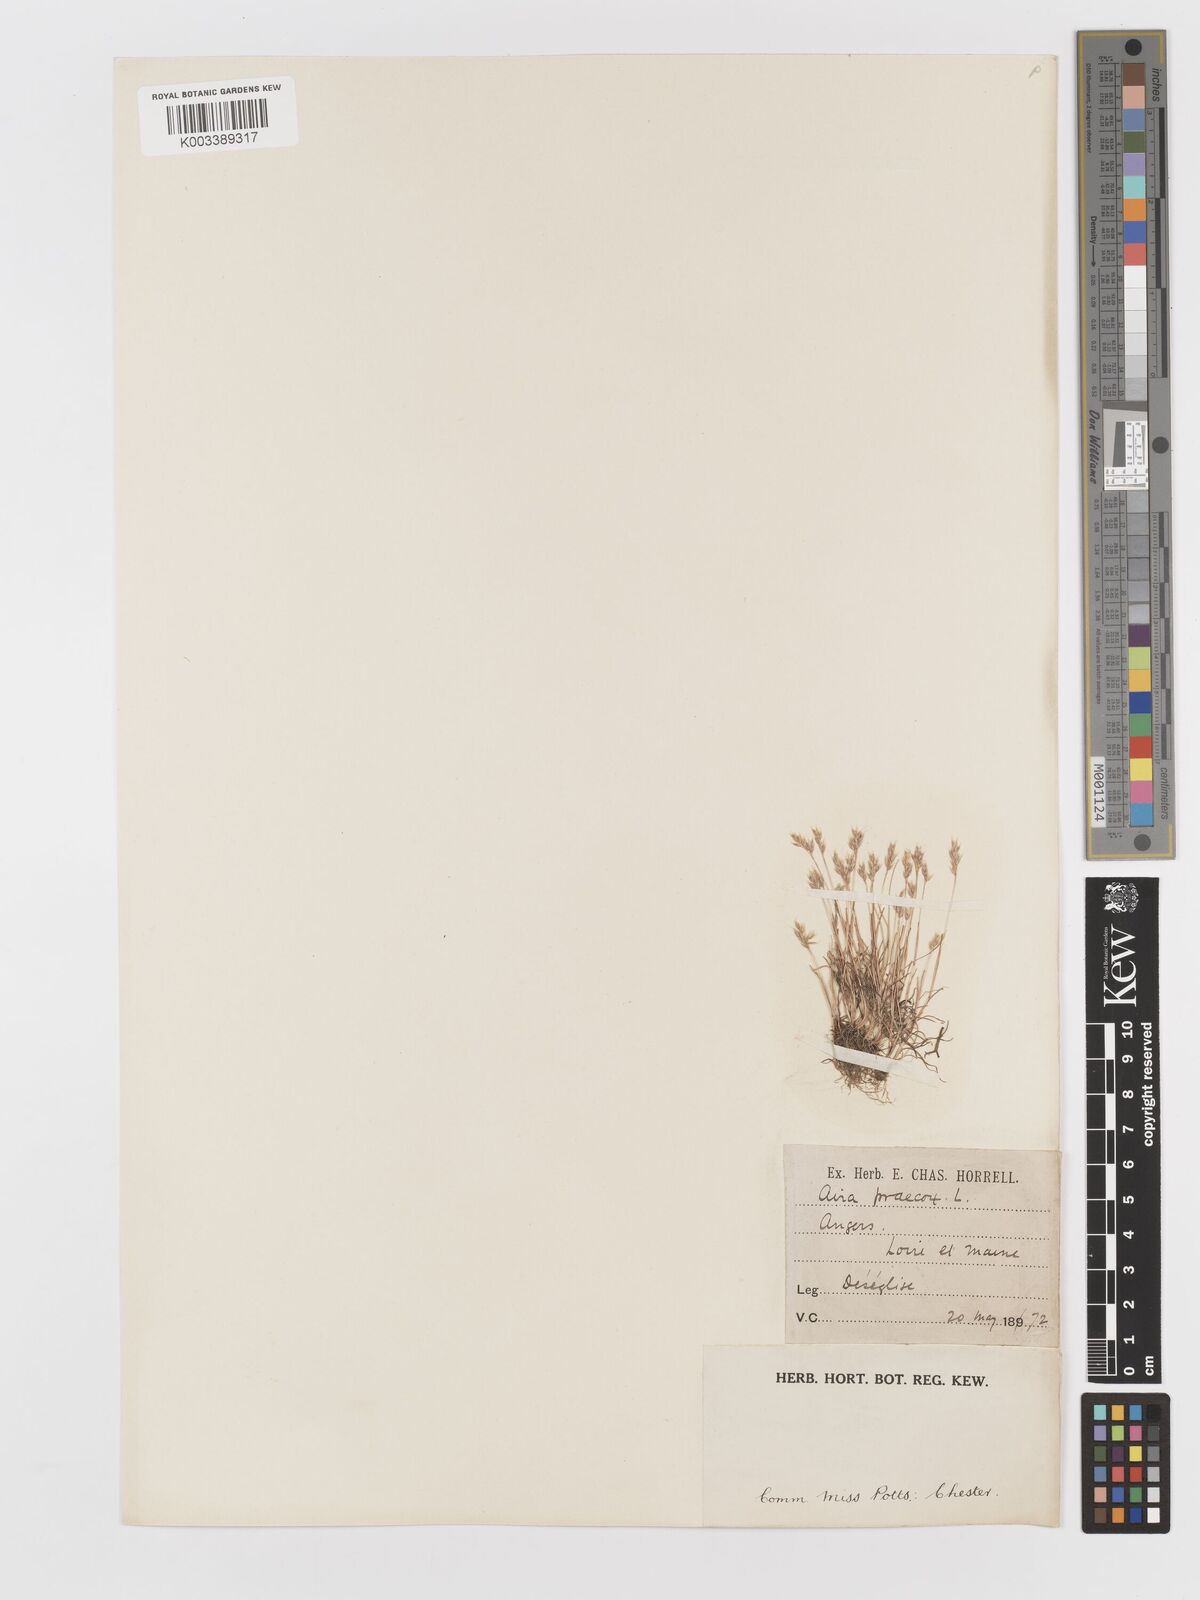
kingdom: Plantae
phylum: Tracheophyta
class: Liliopsida
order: Poales
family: Poaceae
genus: Aira
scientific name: Aira praecox
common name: Early hair-grass
